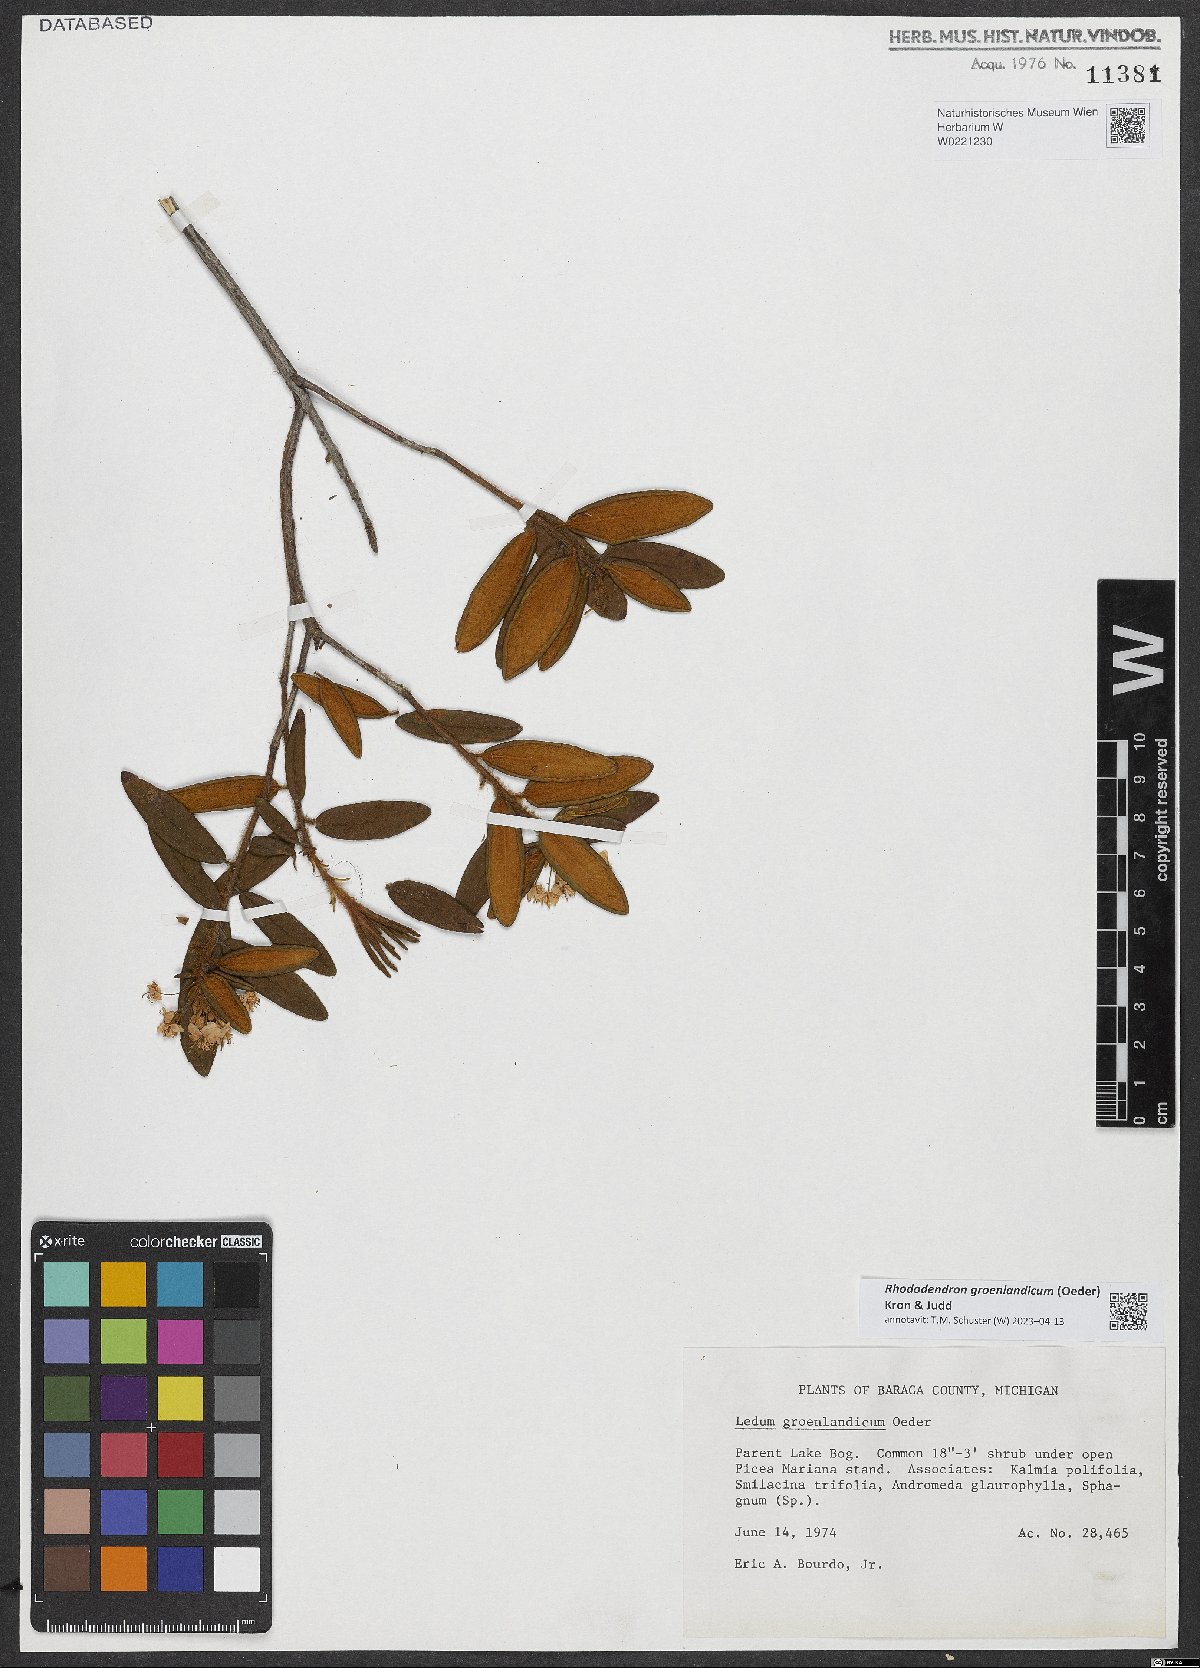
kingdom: Plantae
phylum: Tracheophyta
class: Magnoliopsida
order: Ericales
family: Ericaceae
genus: Rhododendron
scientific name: Rhododendron groenlandicum
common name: Bog labrador tea
